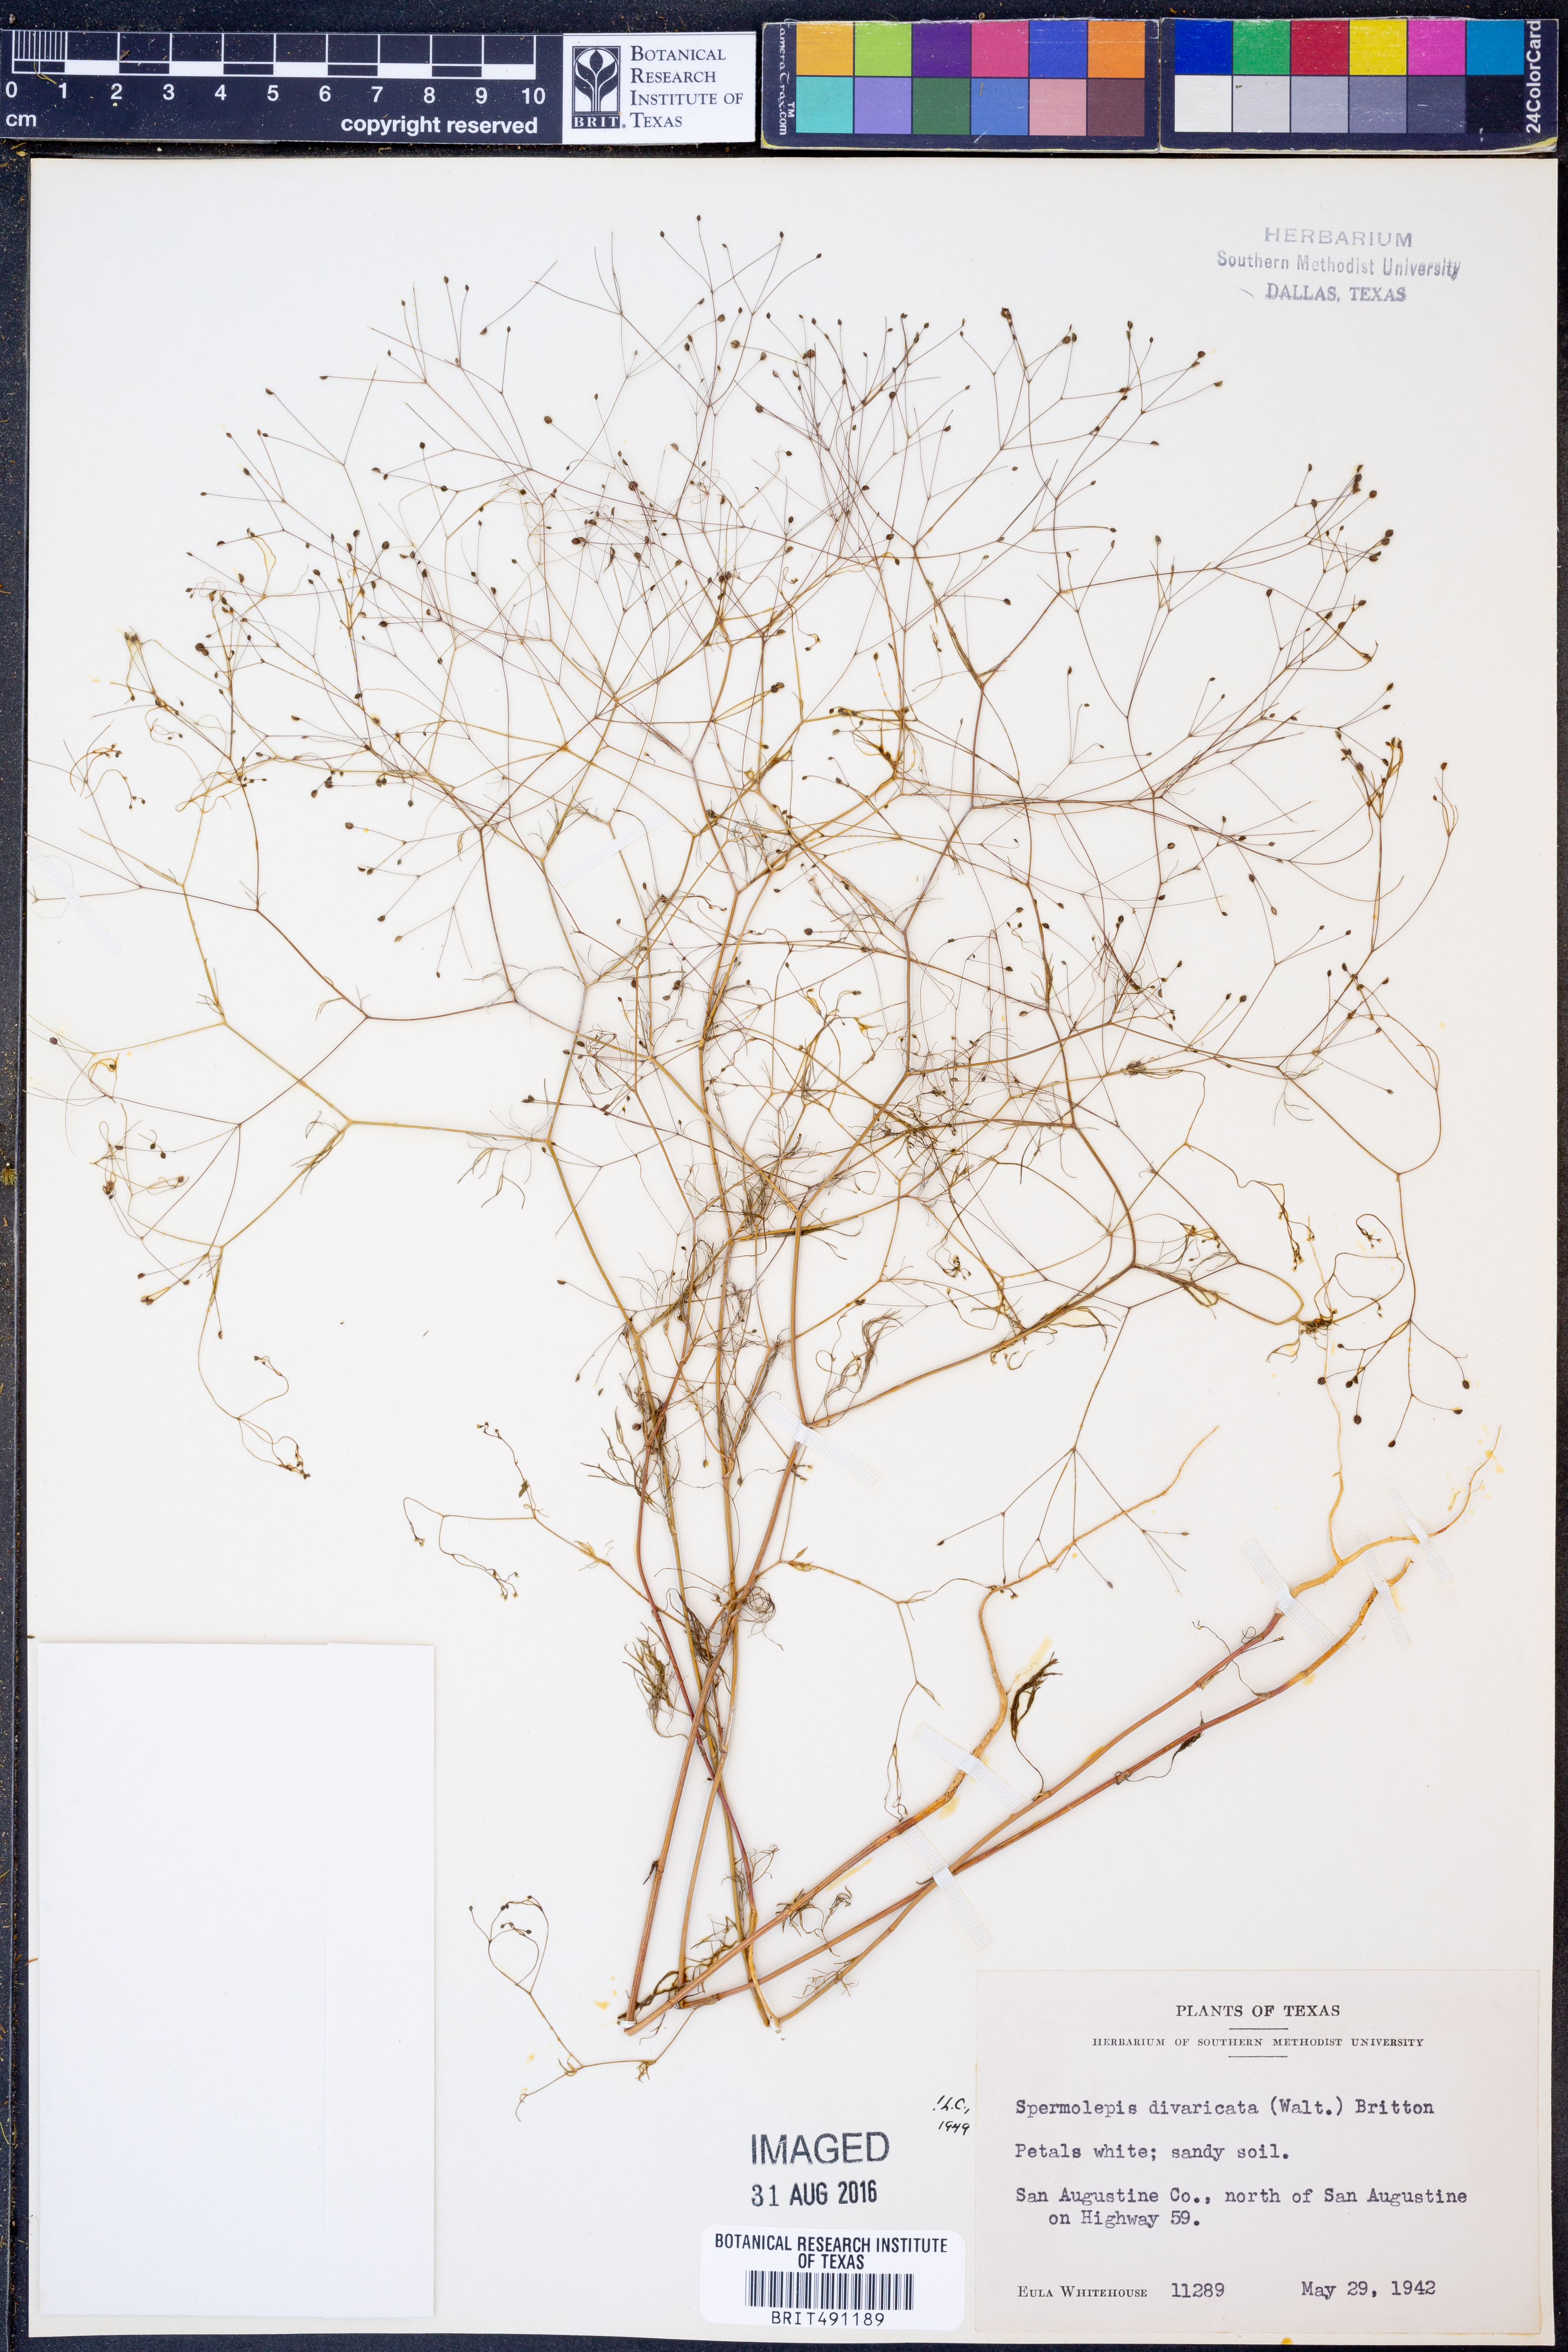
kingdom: Plantae
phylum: Tracheophyta
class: Magnoliopsida
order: Apiales
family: Apiaceae
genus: Spermolepis
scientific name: Spermolepis divaricata
